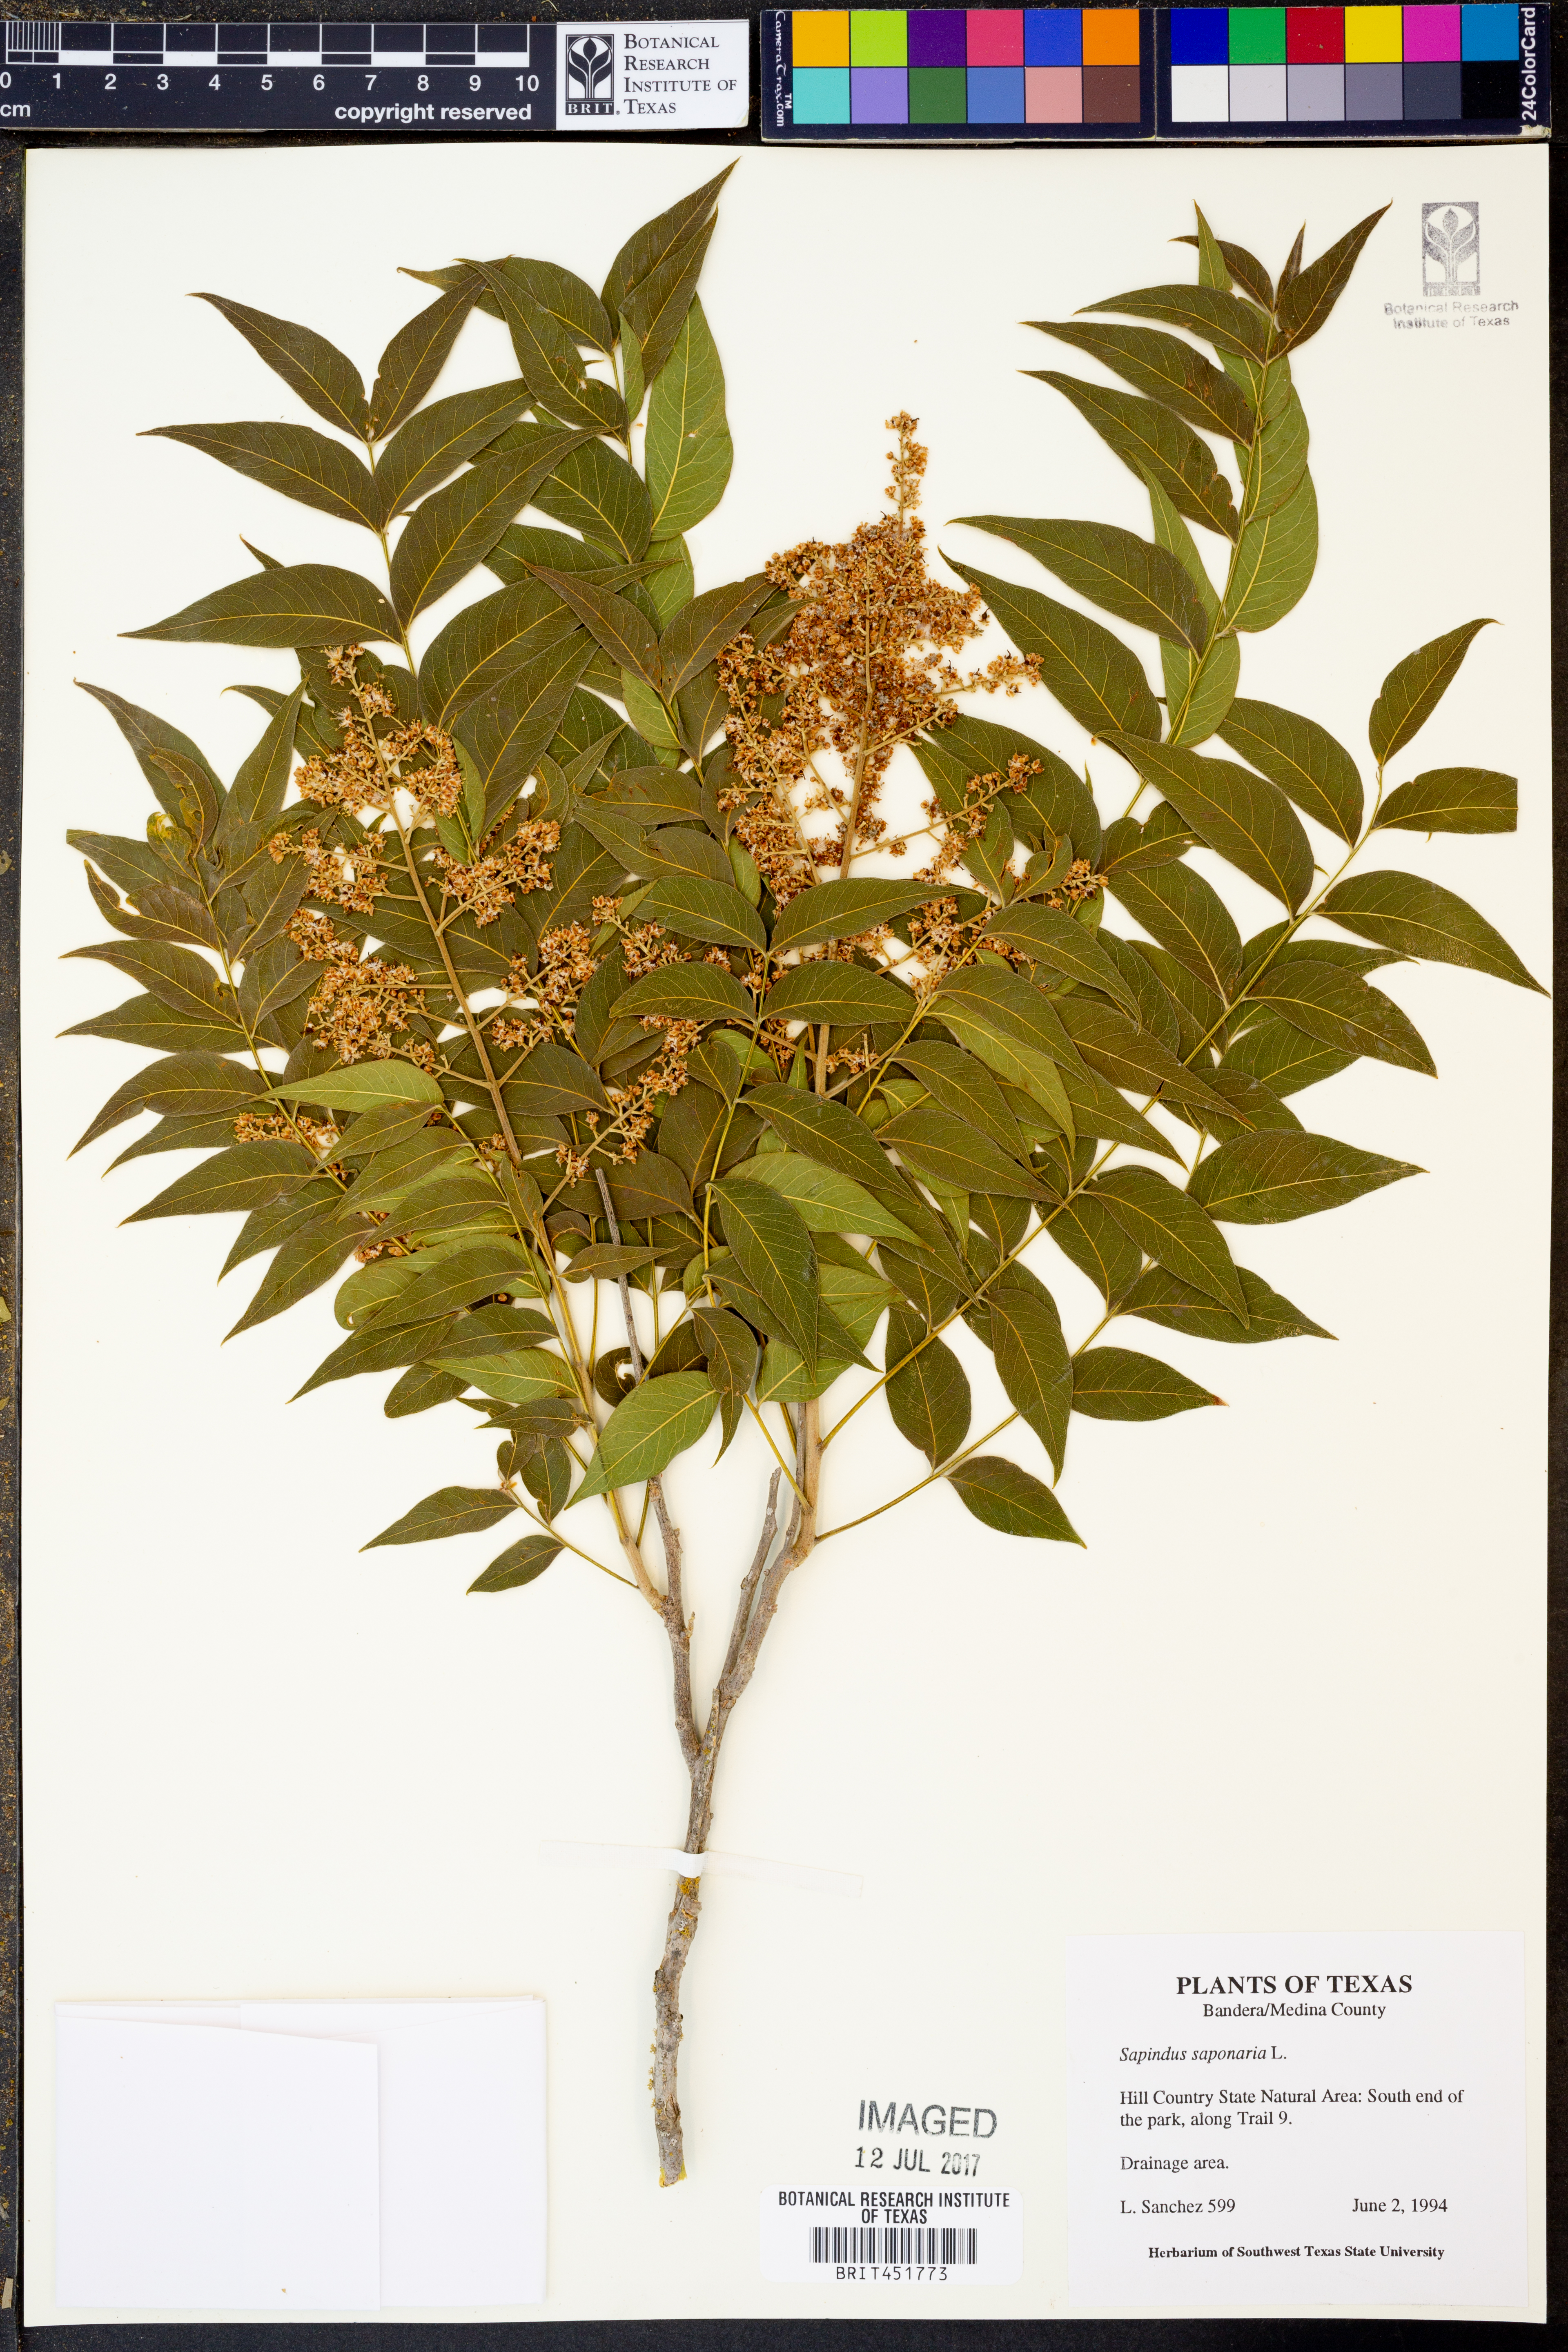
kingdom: Plantae
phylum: Tracheophyta
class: Magnoliopsida
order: Sapindales
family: Sapindaceae
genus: Sapindus
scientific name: Sapindus saponaria
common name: Wingleaf soapberry
